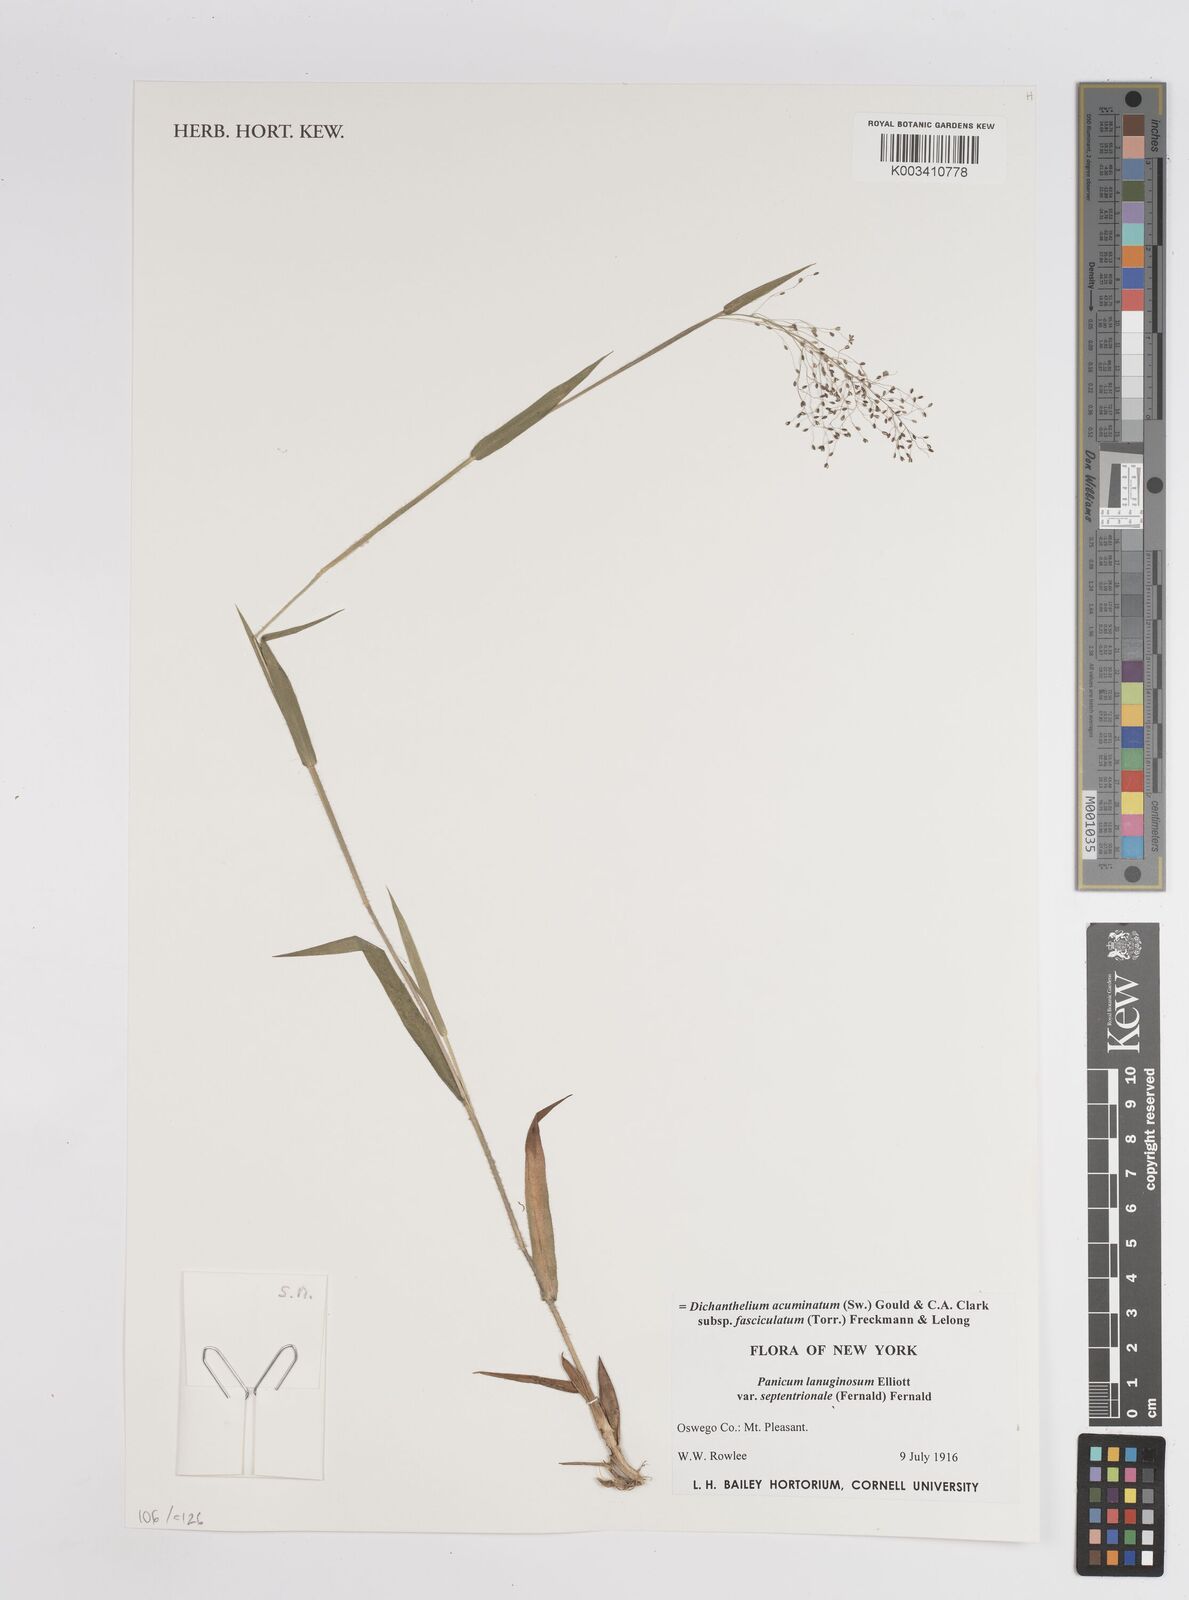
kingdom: Plantae
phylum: Tracheophyta
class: Liliopsida
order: Poales
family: Poaceae
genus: Dichanthelium
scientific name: Dichanthelium acuminatum
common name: Hairy panic grass
